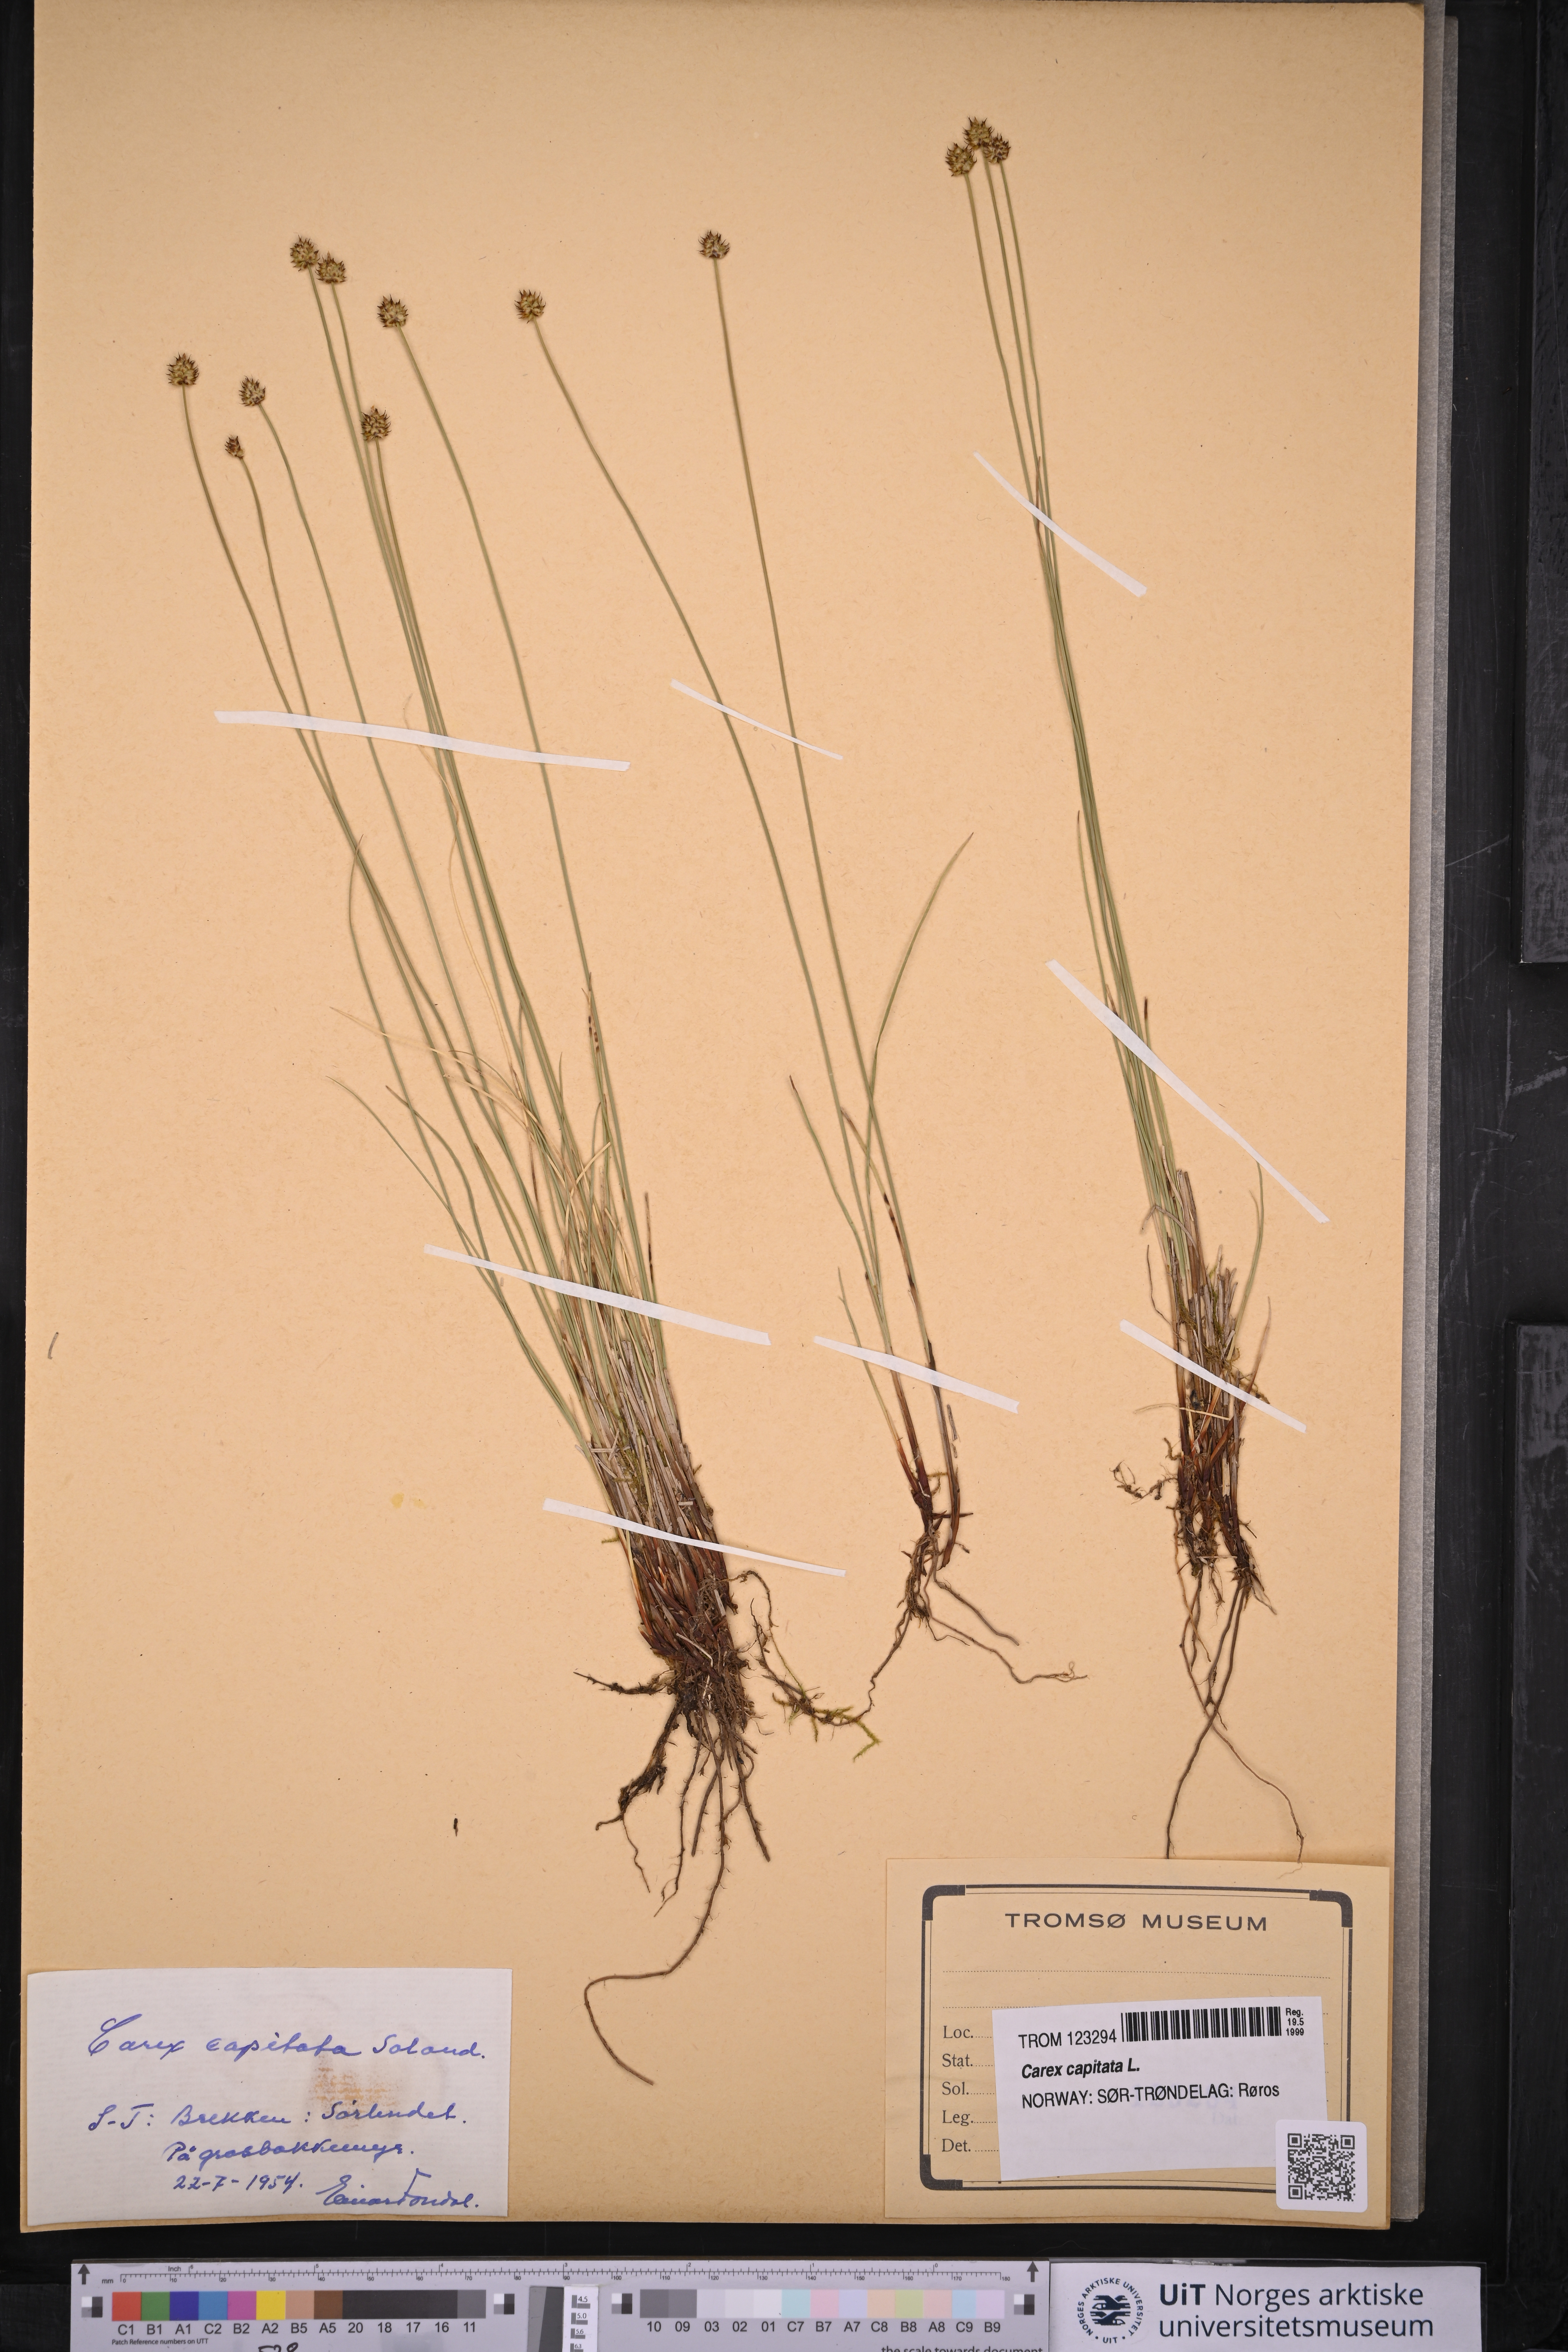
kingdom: Plantae
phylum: Tracheophyta
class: Liliopsida
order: Poales
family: Cyperaceae
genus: Carex
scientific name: Carex capitata
